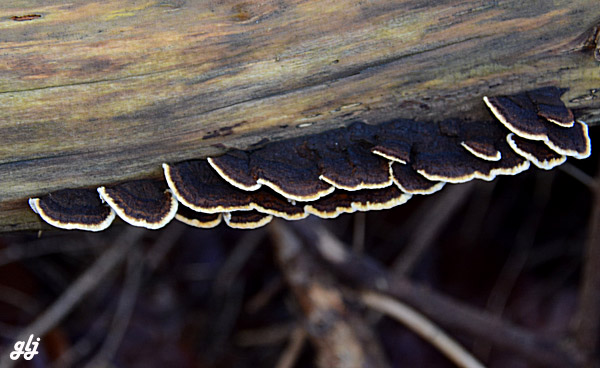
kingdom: Fungi
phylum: Basidiomycota
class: Agaricomycetes
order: Gloeophyllales
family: Gloeophyllaceae
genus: Gloeophyllum
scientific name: Gloeophyllum sepiarium
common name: fyrre-korkhat
